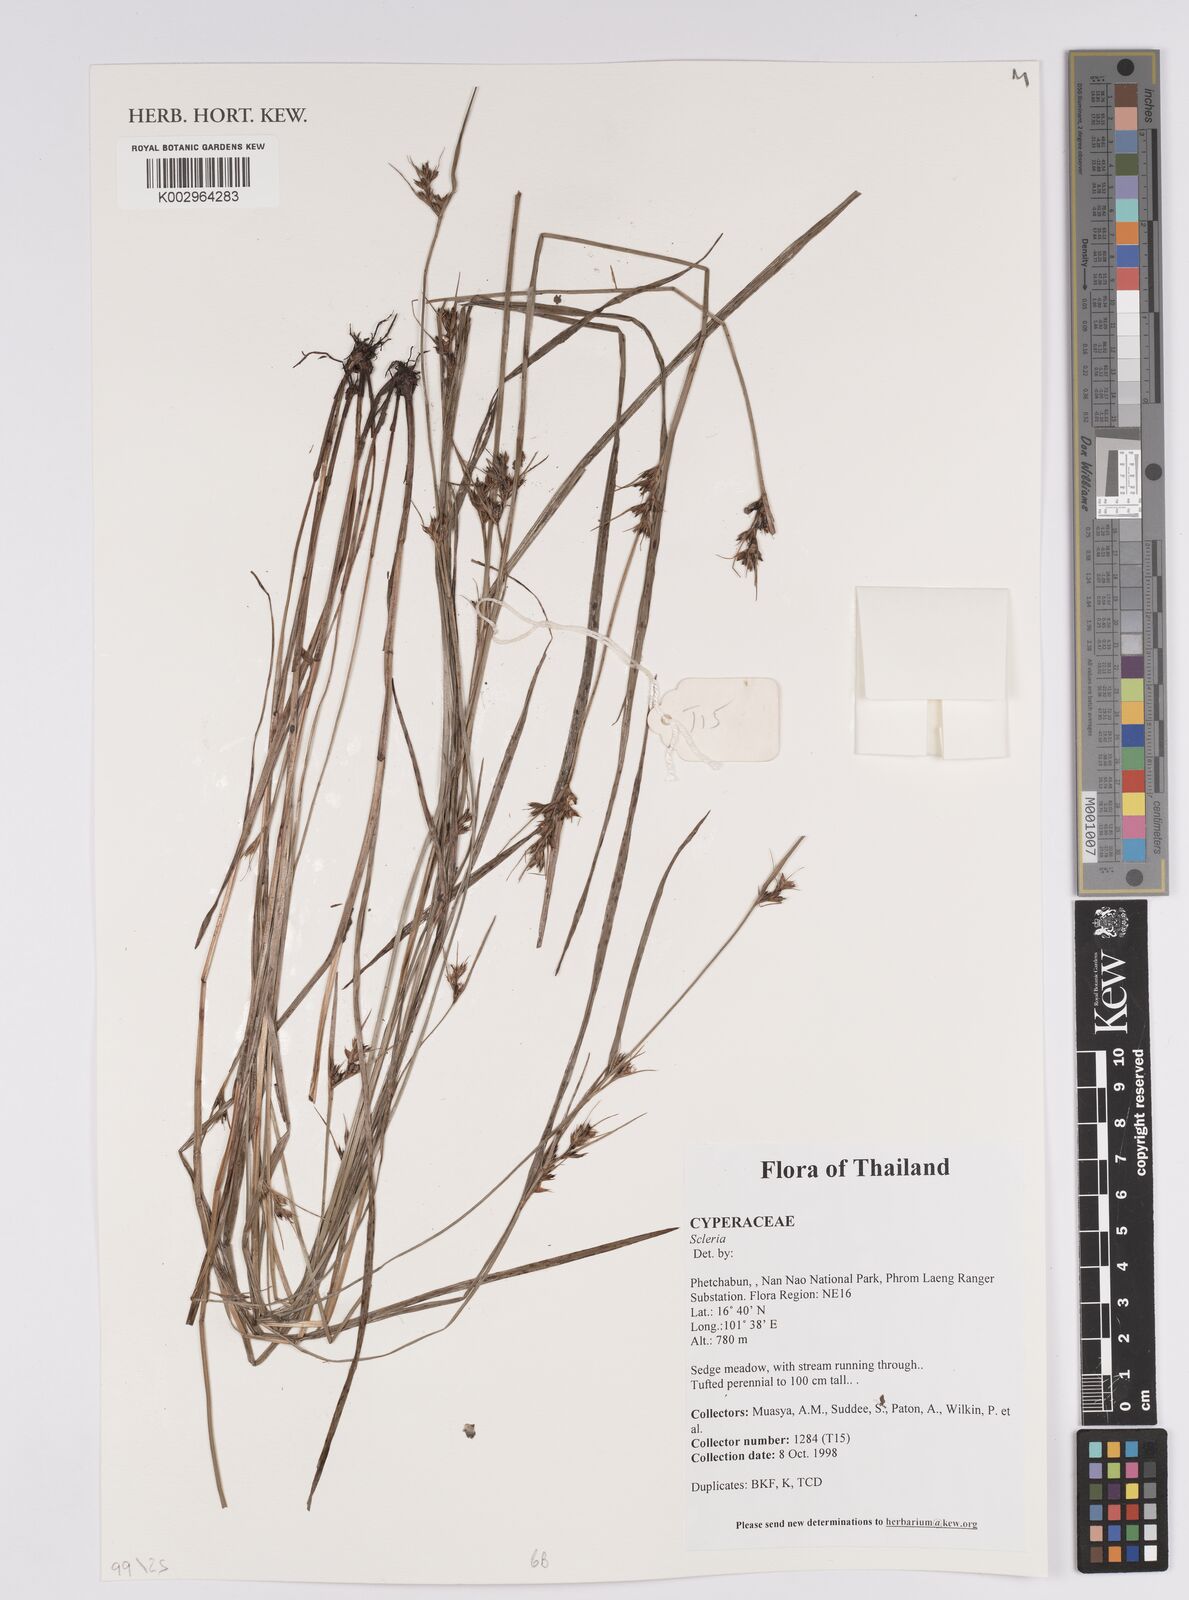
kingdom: Plantae
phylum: Tracheophyta
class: Liliopsida
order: Poales
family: Cyperaceae
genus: Scleria
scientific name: Scleria
